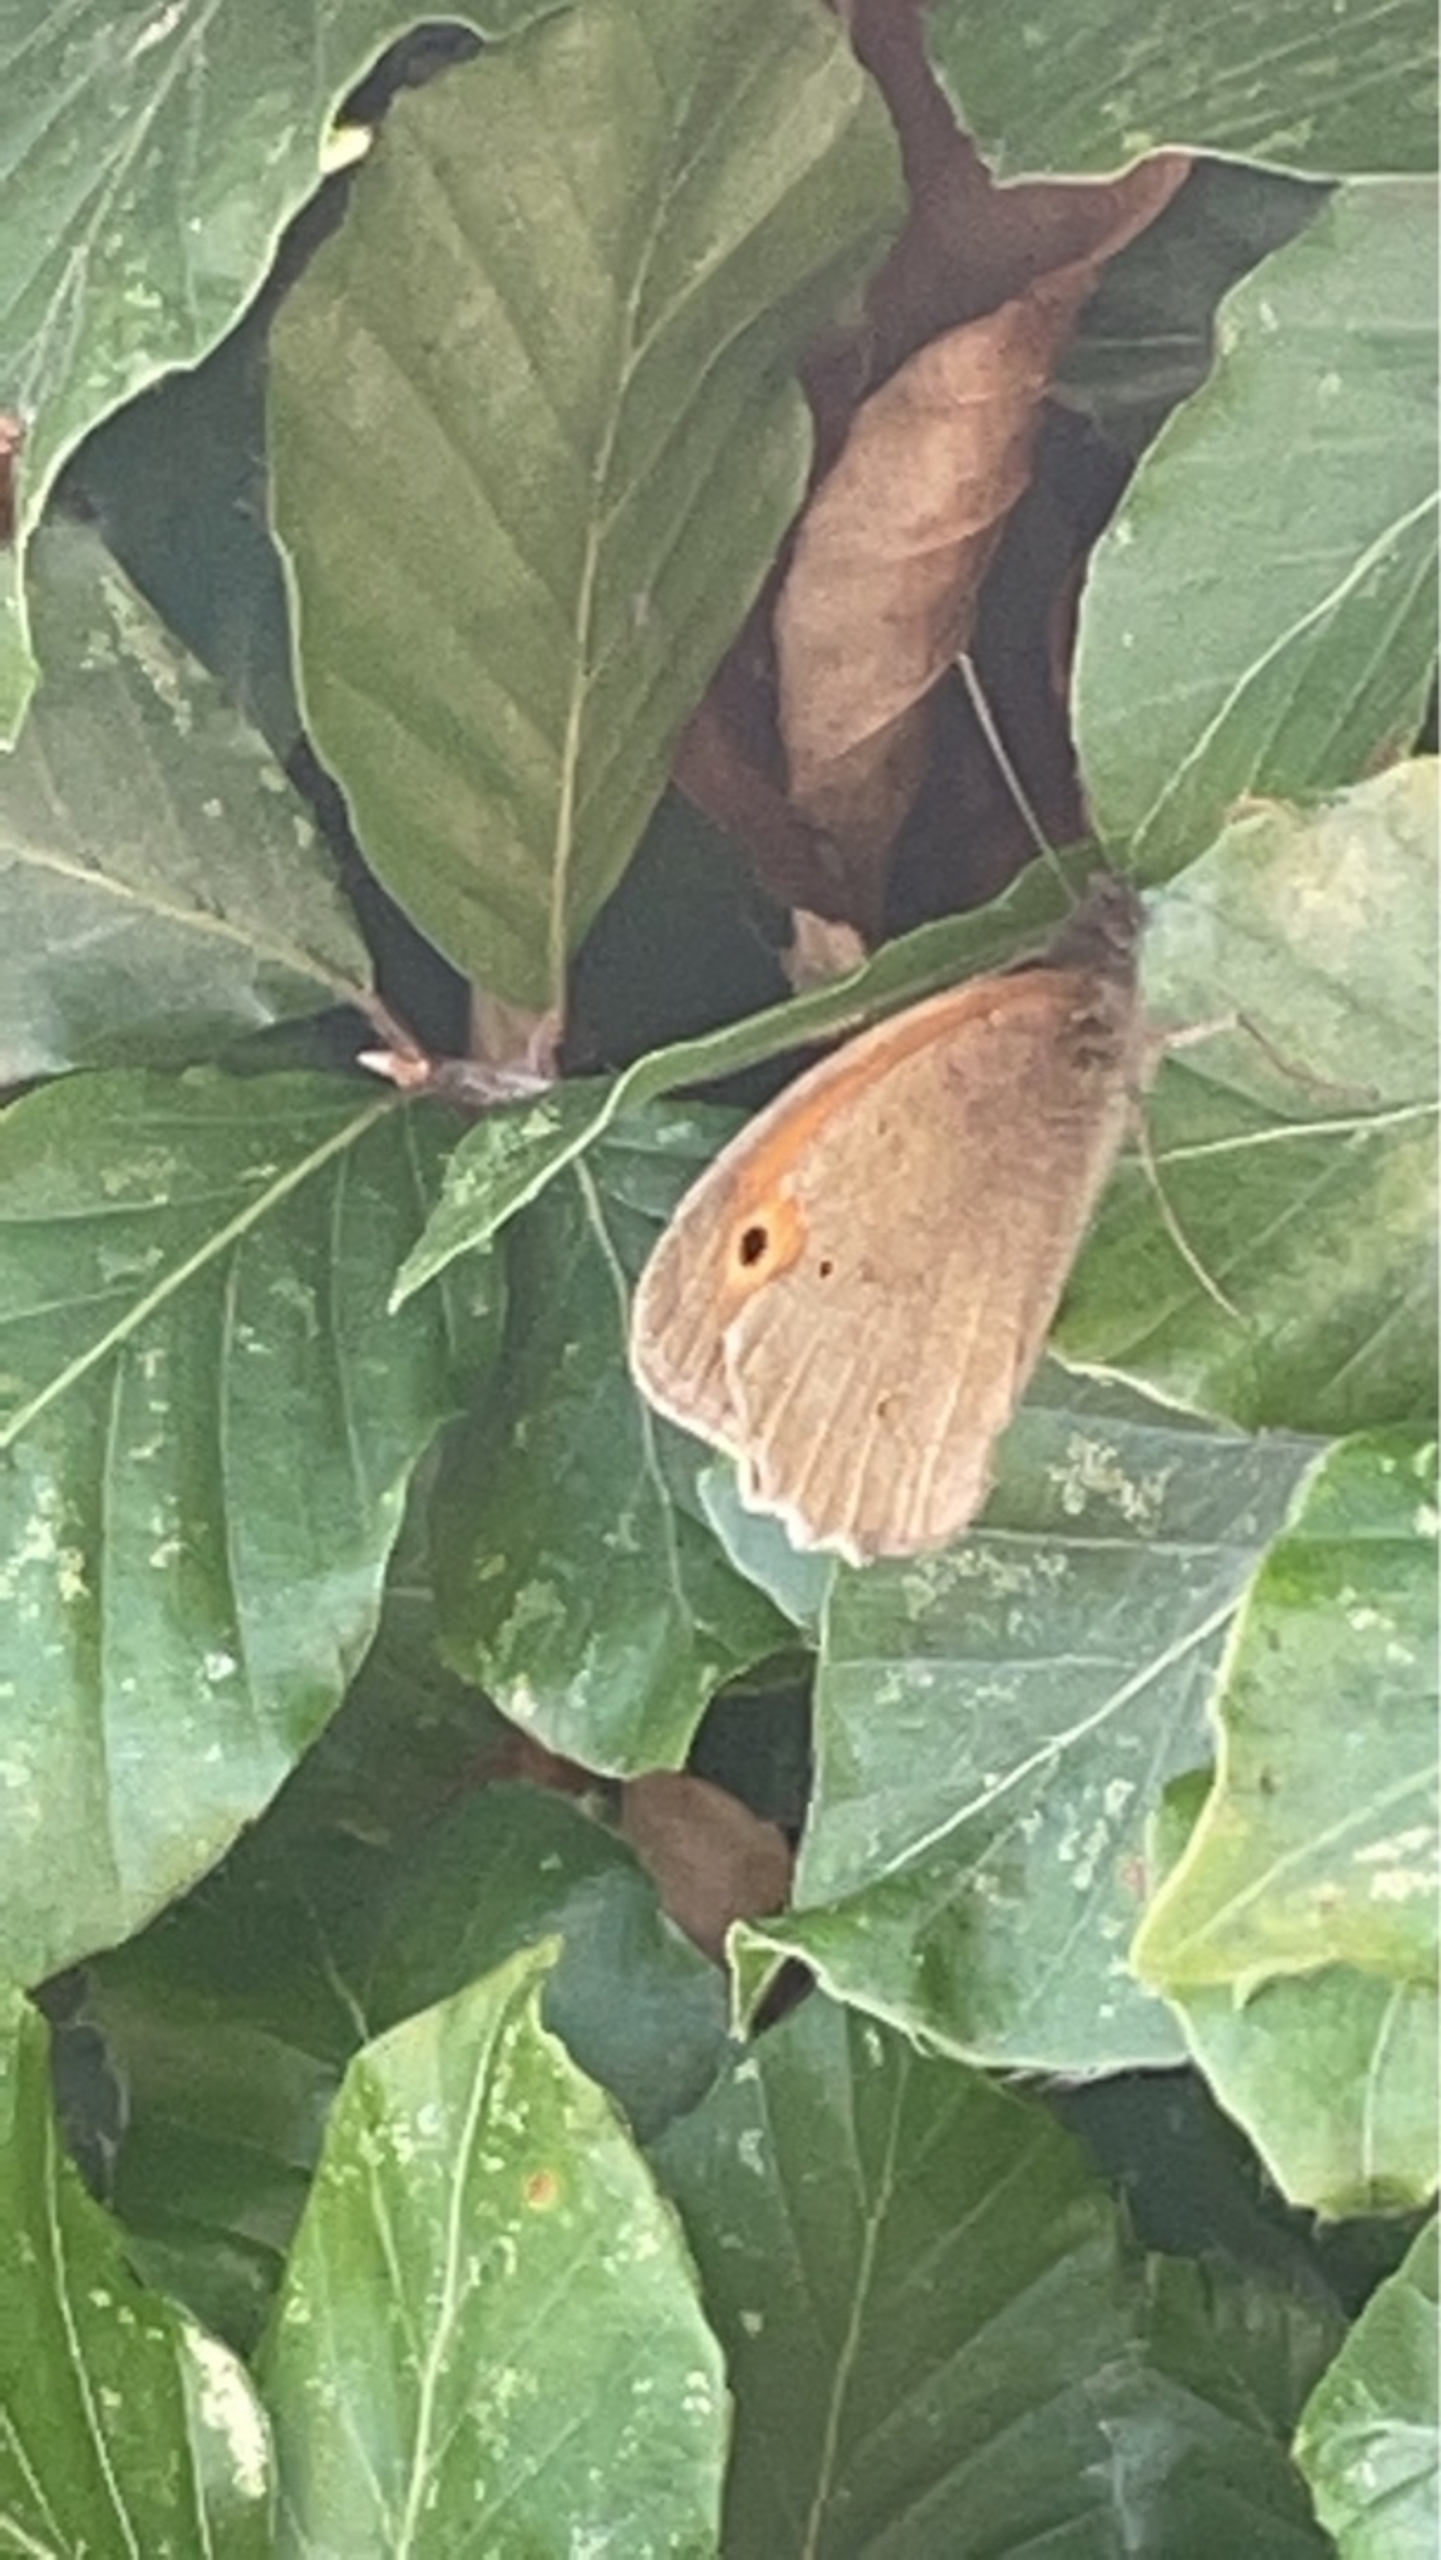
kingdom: Animalia
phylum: Arthropoda
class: Insecta
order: Lepidoptera
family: Nymphalidae
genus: Maniola
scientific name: Maniola jurtina
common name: Græsrandøje
